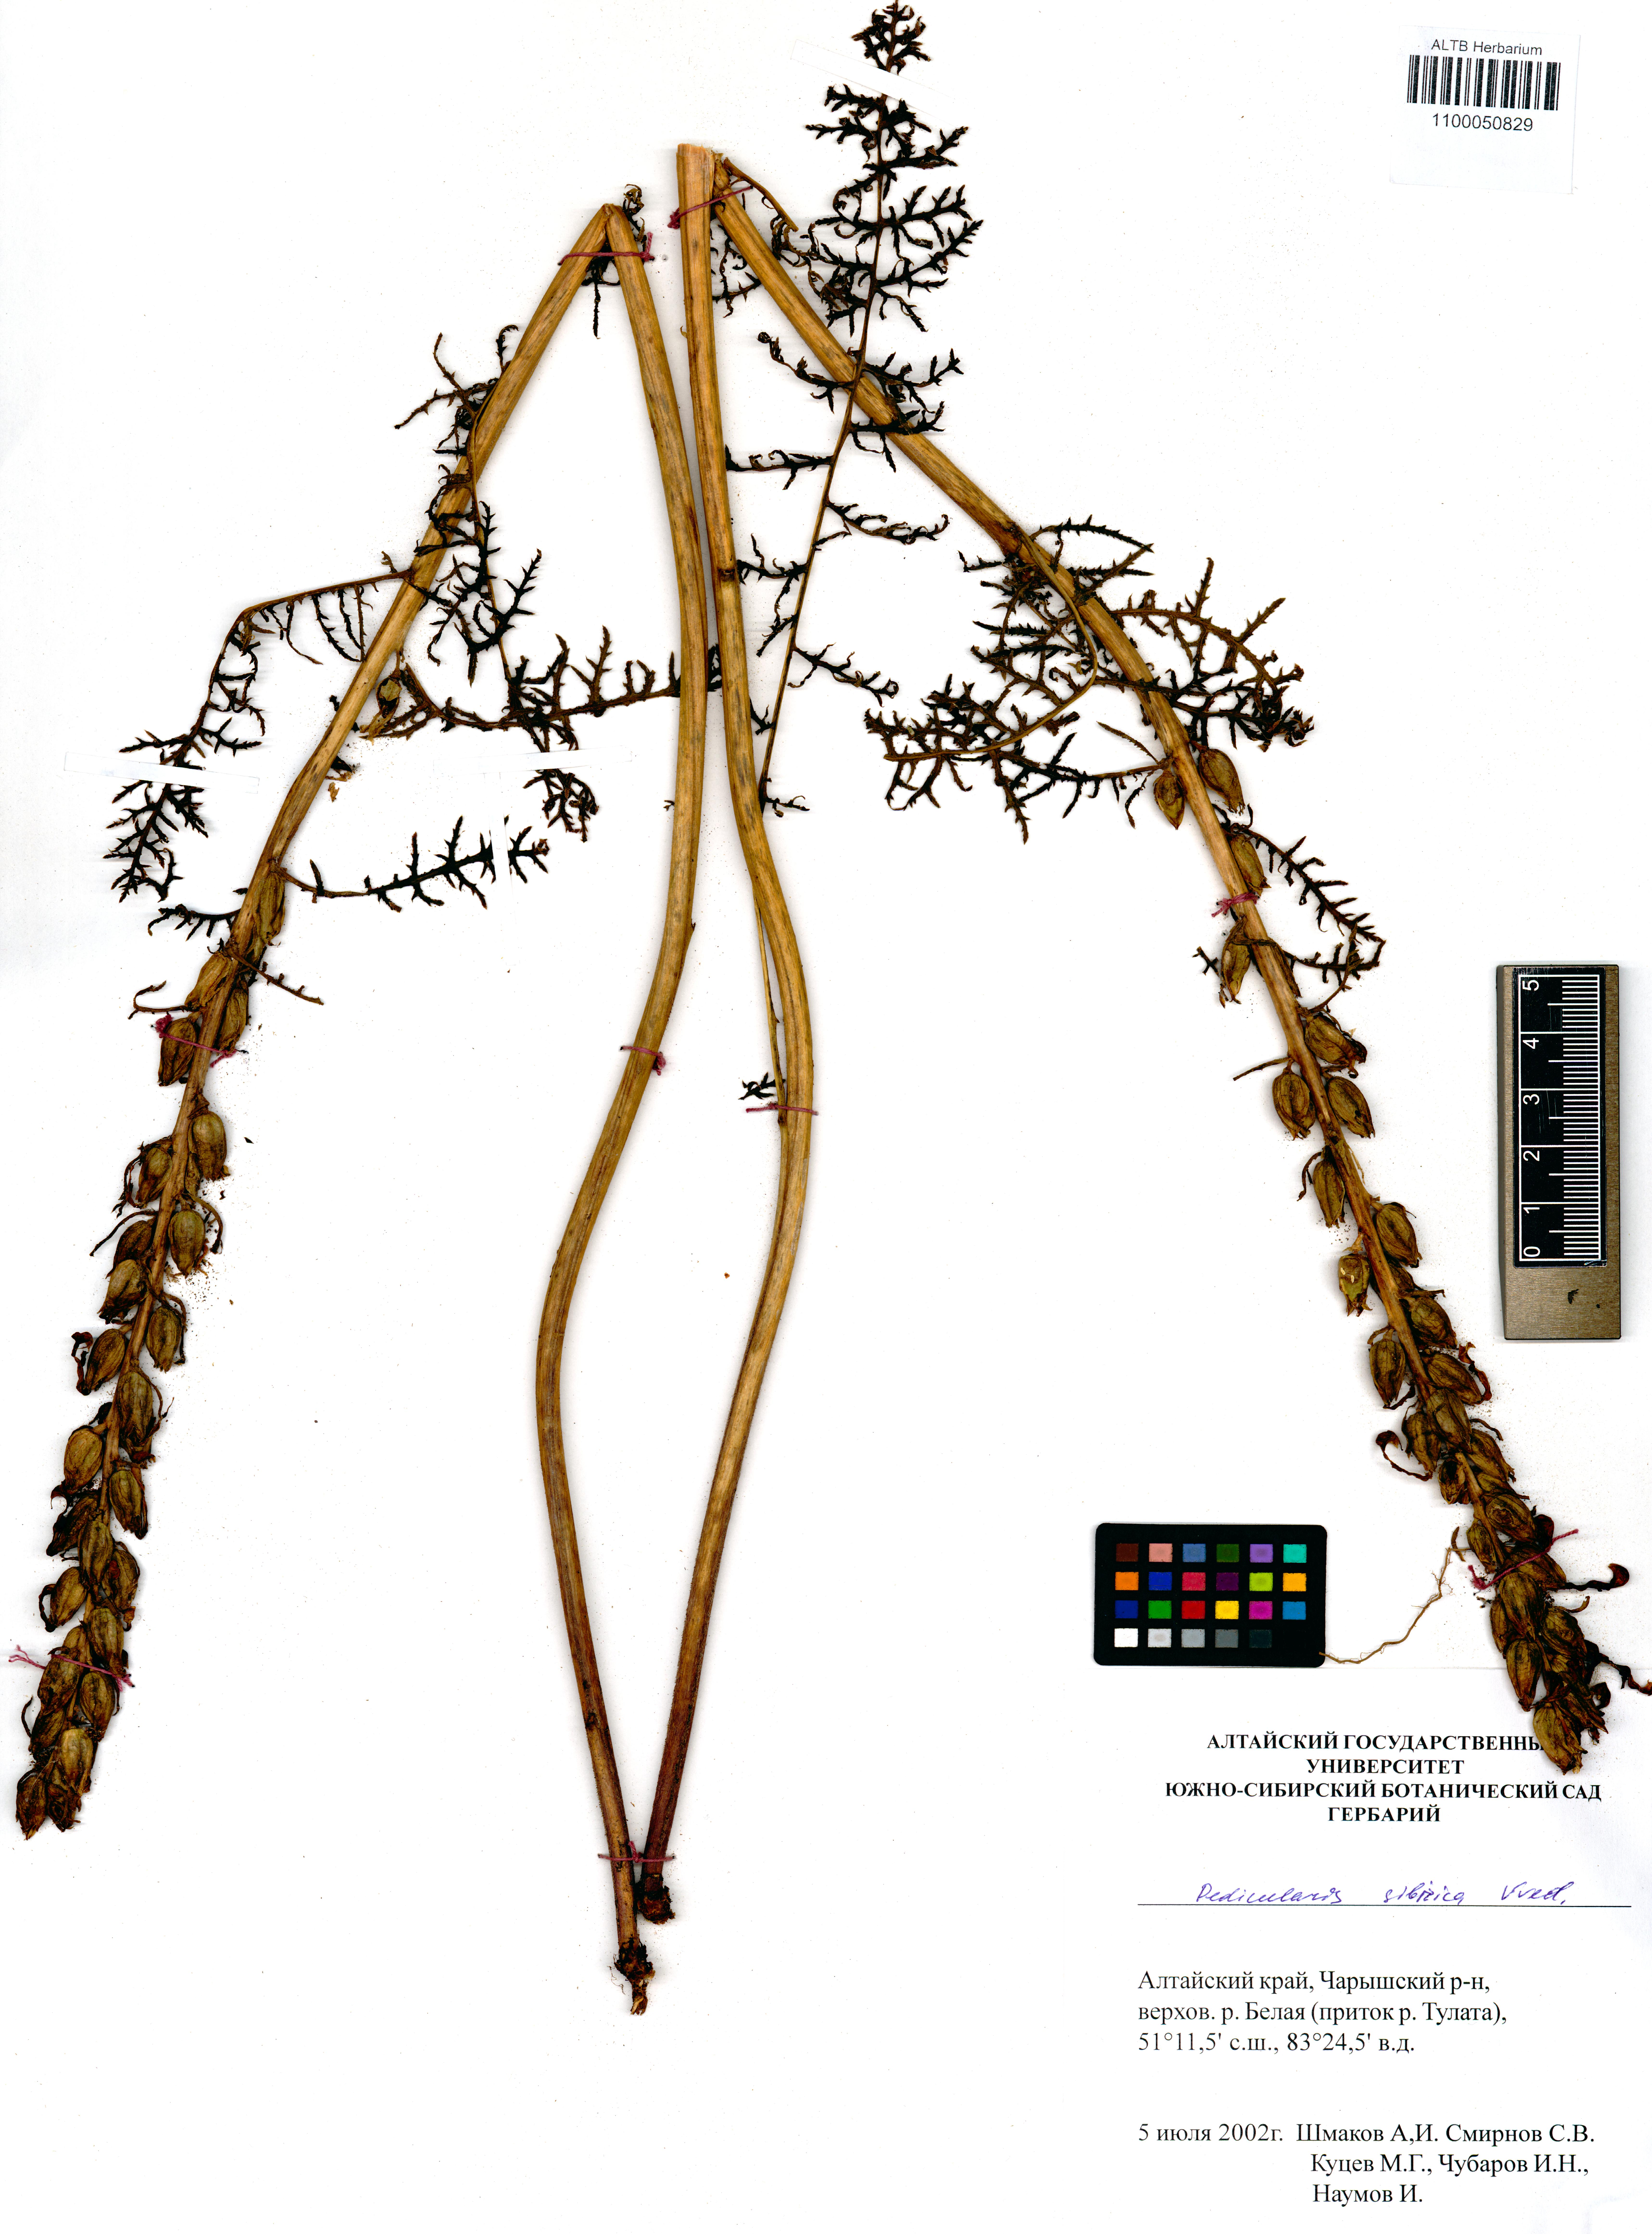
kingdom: Plantae
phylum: Tracheophyta
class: Magnoliopsida
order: Lamiales
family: Orobanchaceae
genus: Pedicularis
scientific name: Pedicularis sibirica
